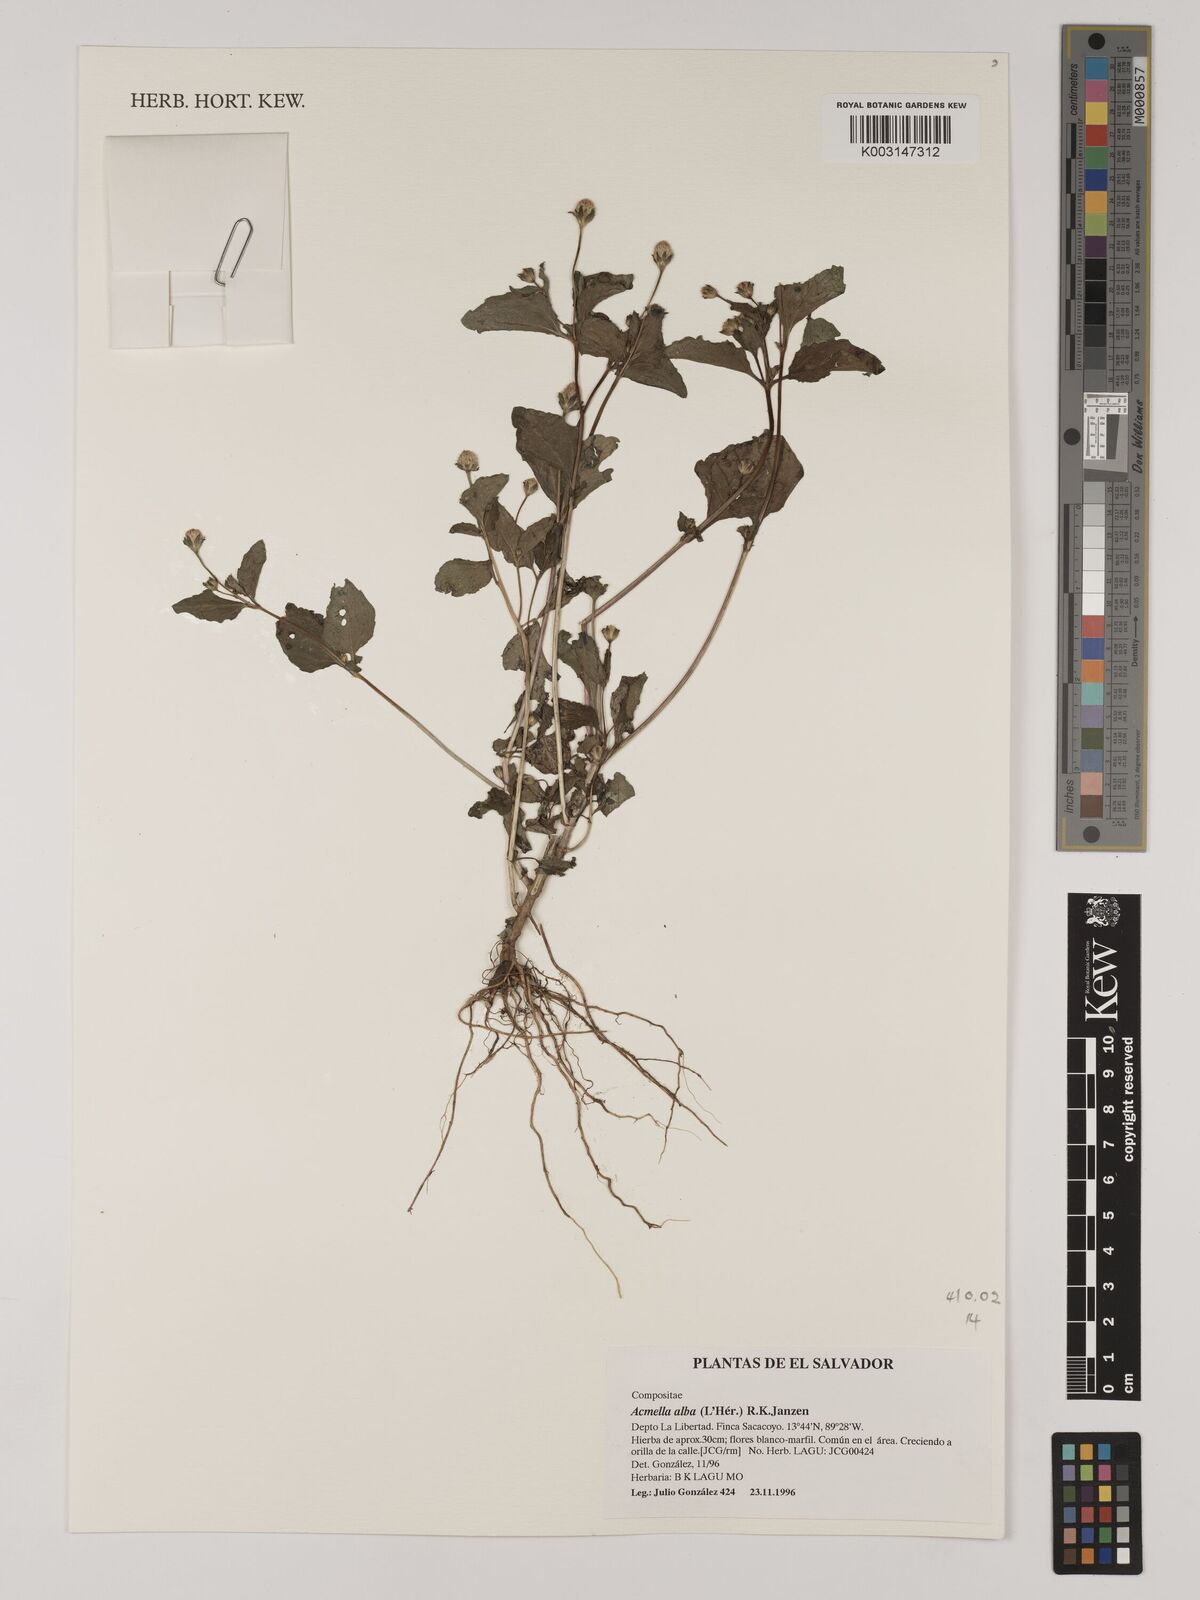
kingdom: Plantae
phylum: Tracheophyta
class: Magnoliopsida
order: Asterales
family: Asteraceae
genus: Acmella
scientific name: Acmella alba
